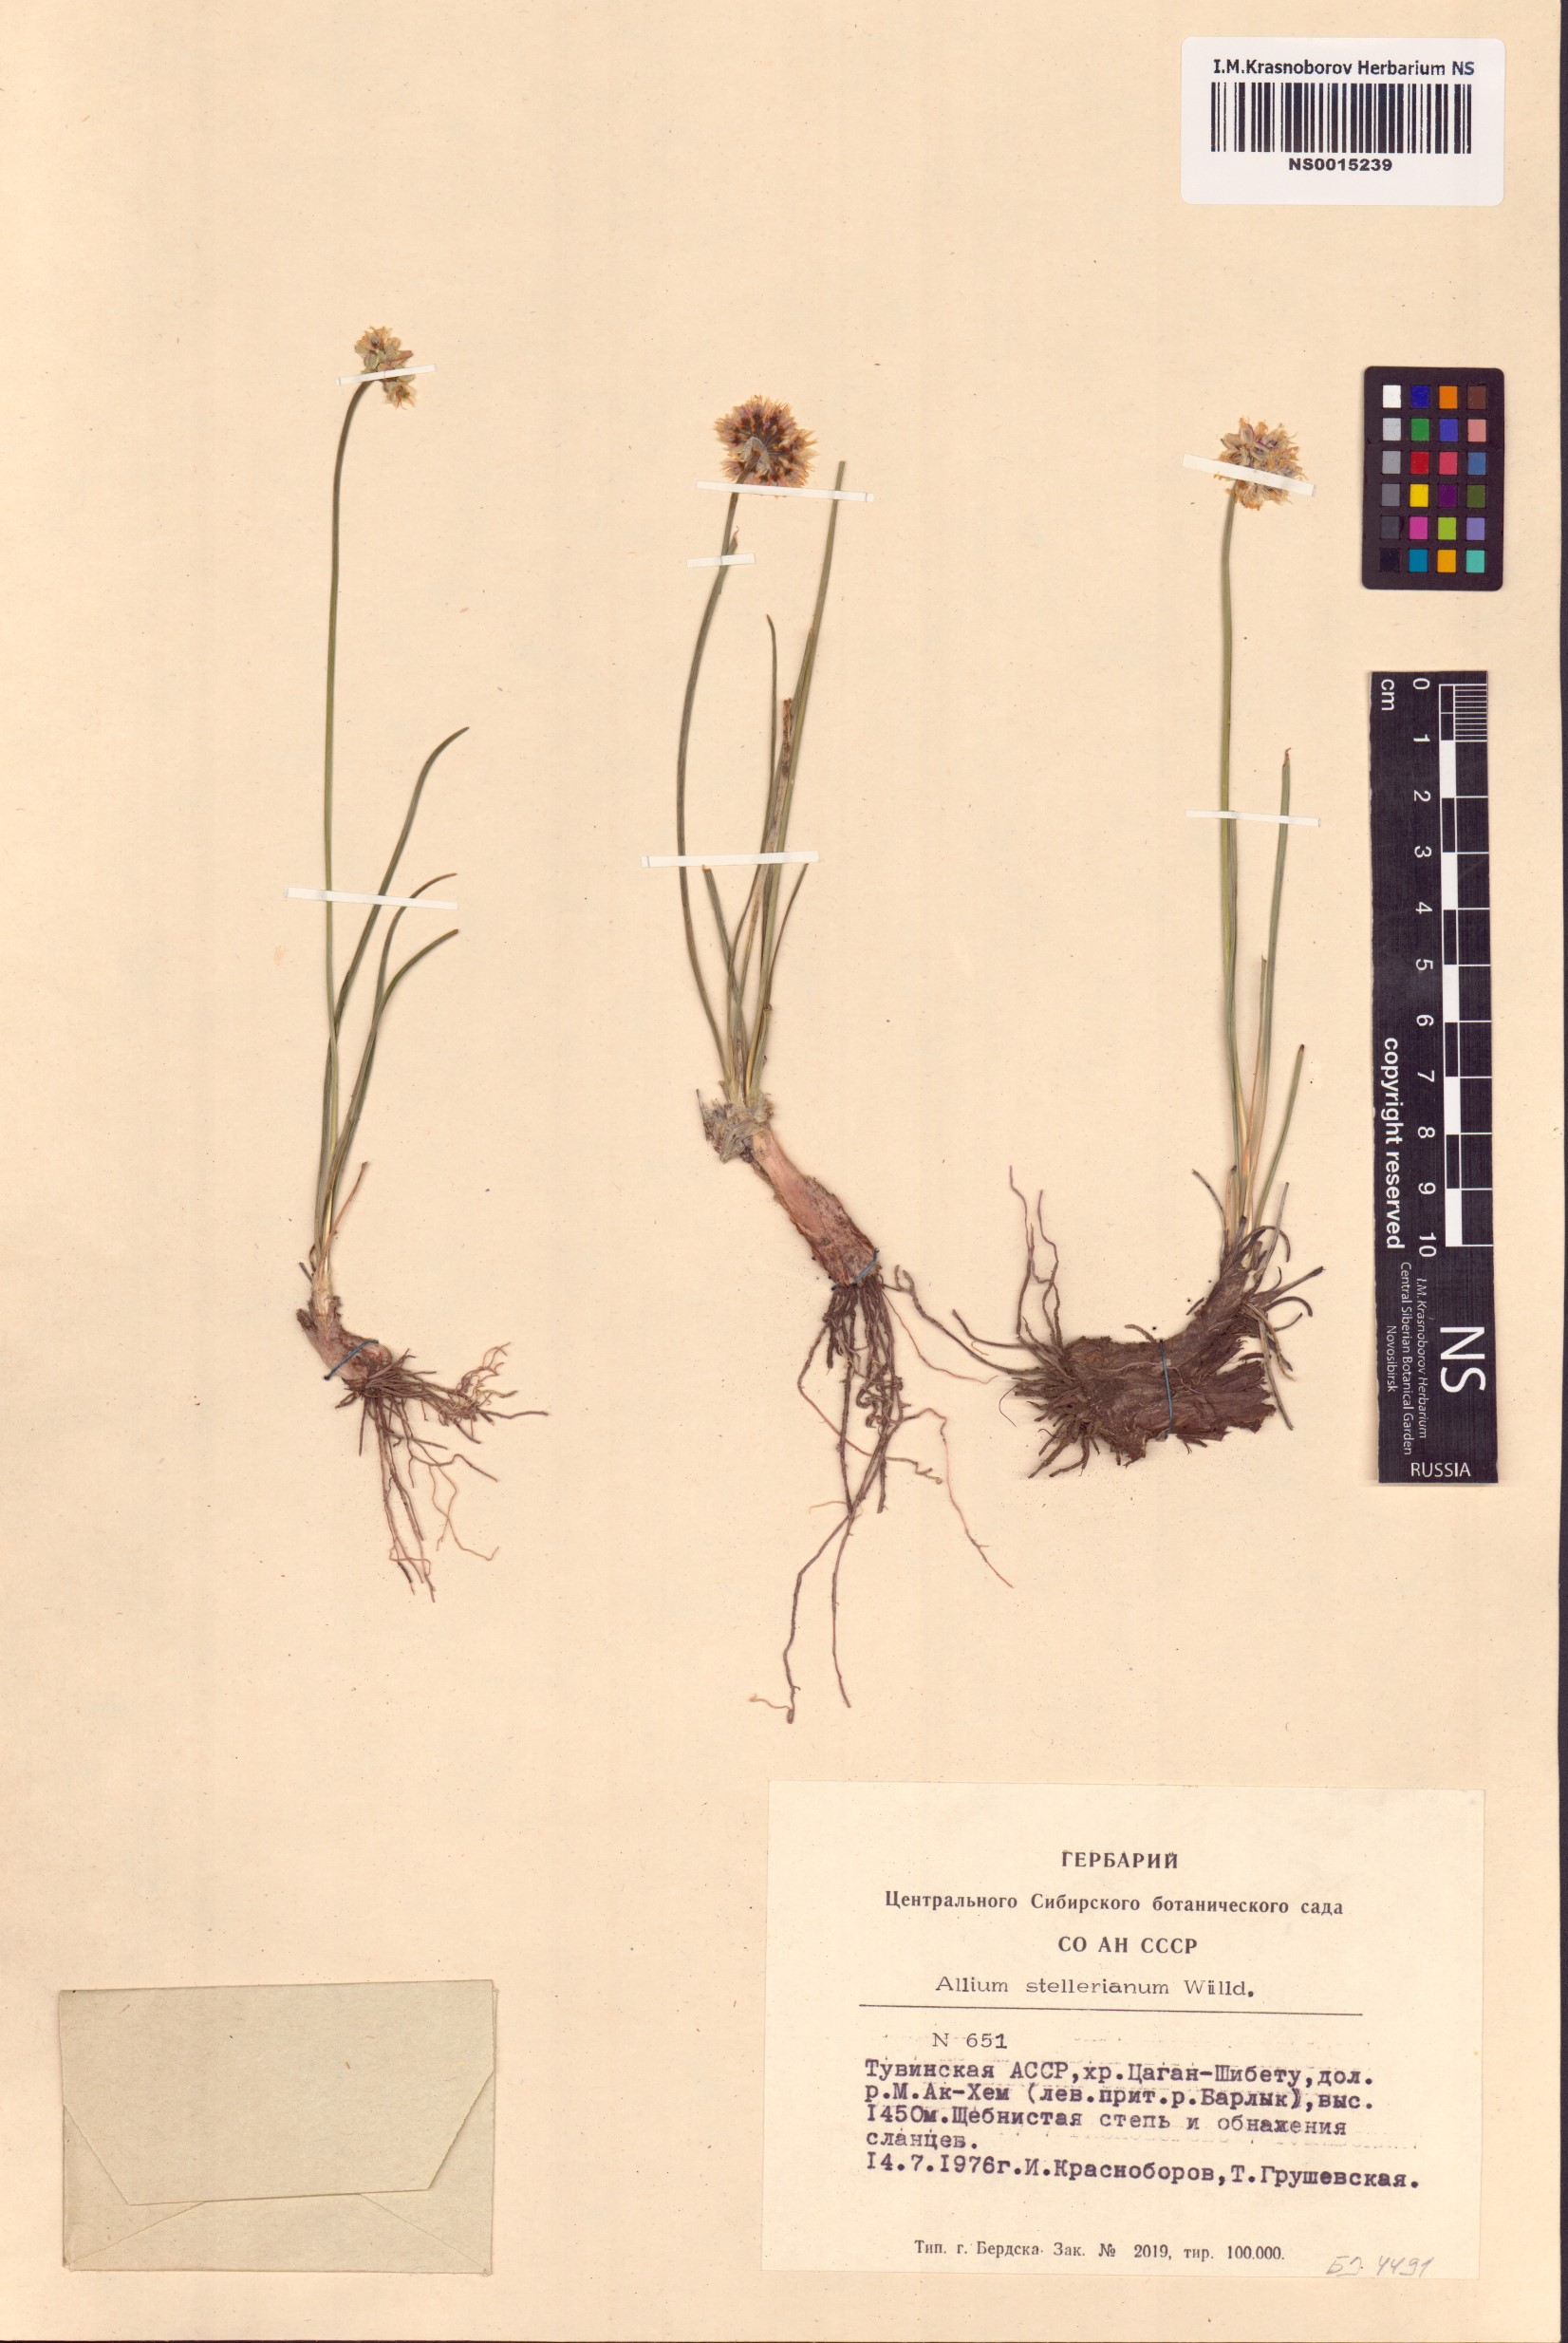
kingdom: Plantae
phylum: Tracheophyta
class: Liliopsida
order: Asparagales
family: Amaryllidaceae
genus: Allium
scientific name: Allium stellerianum
